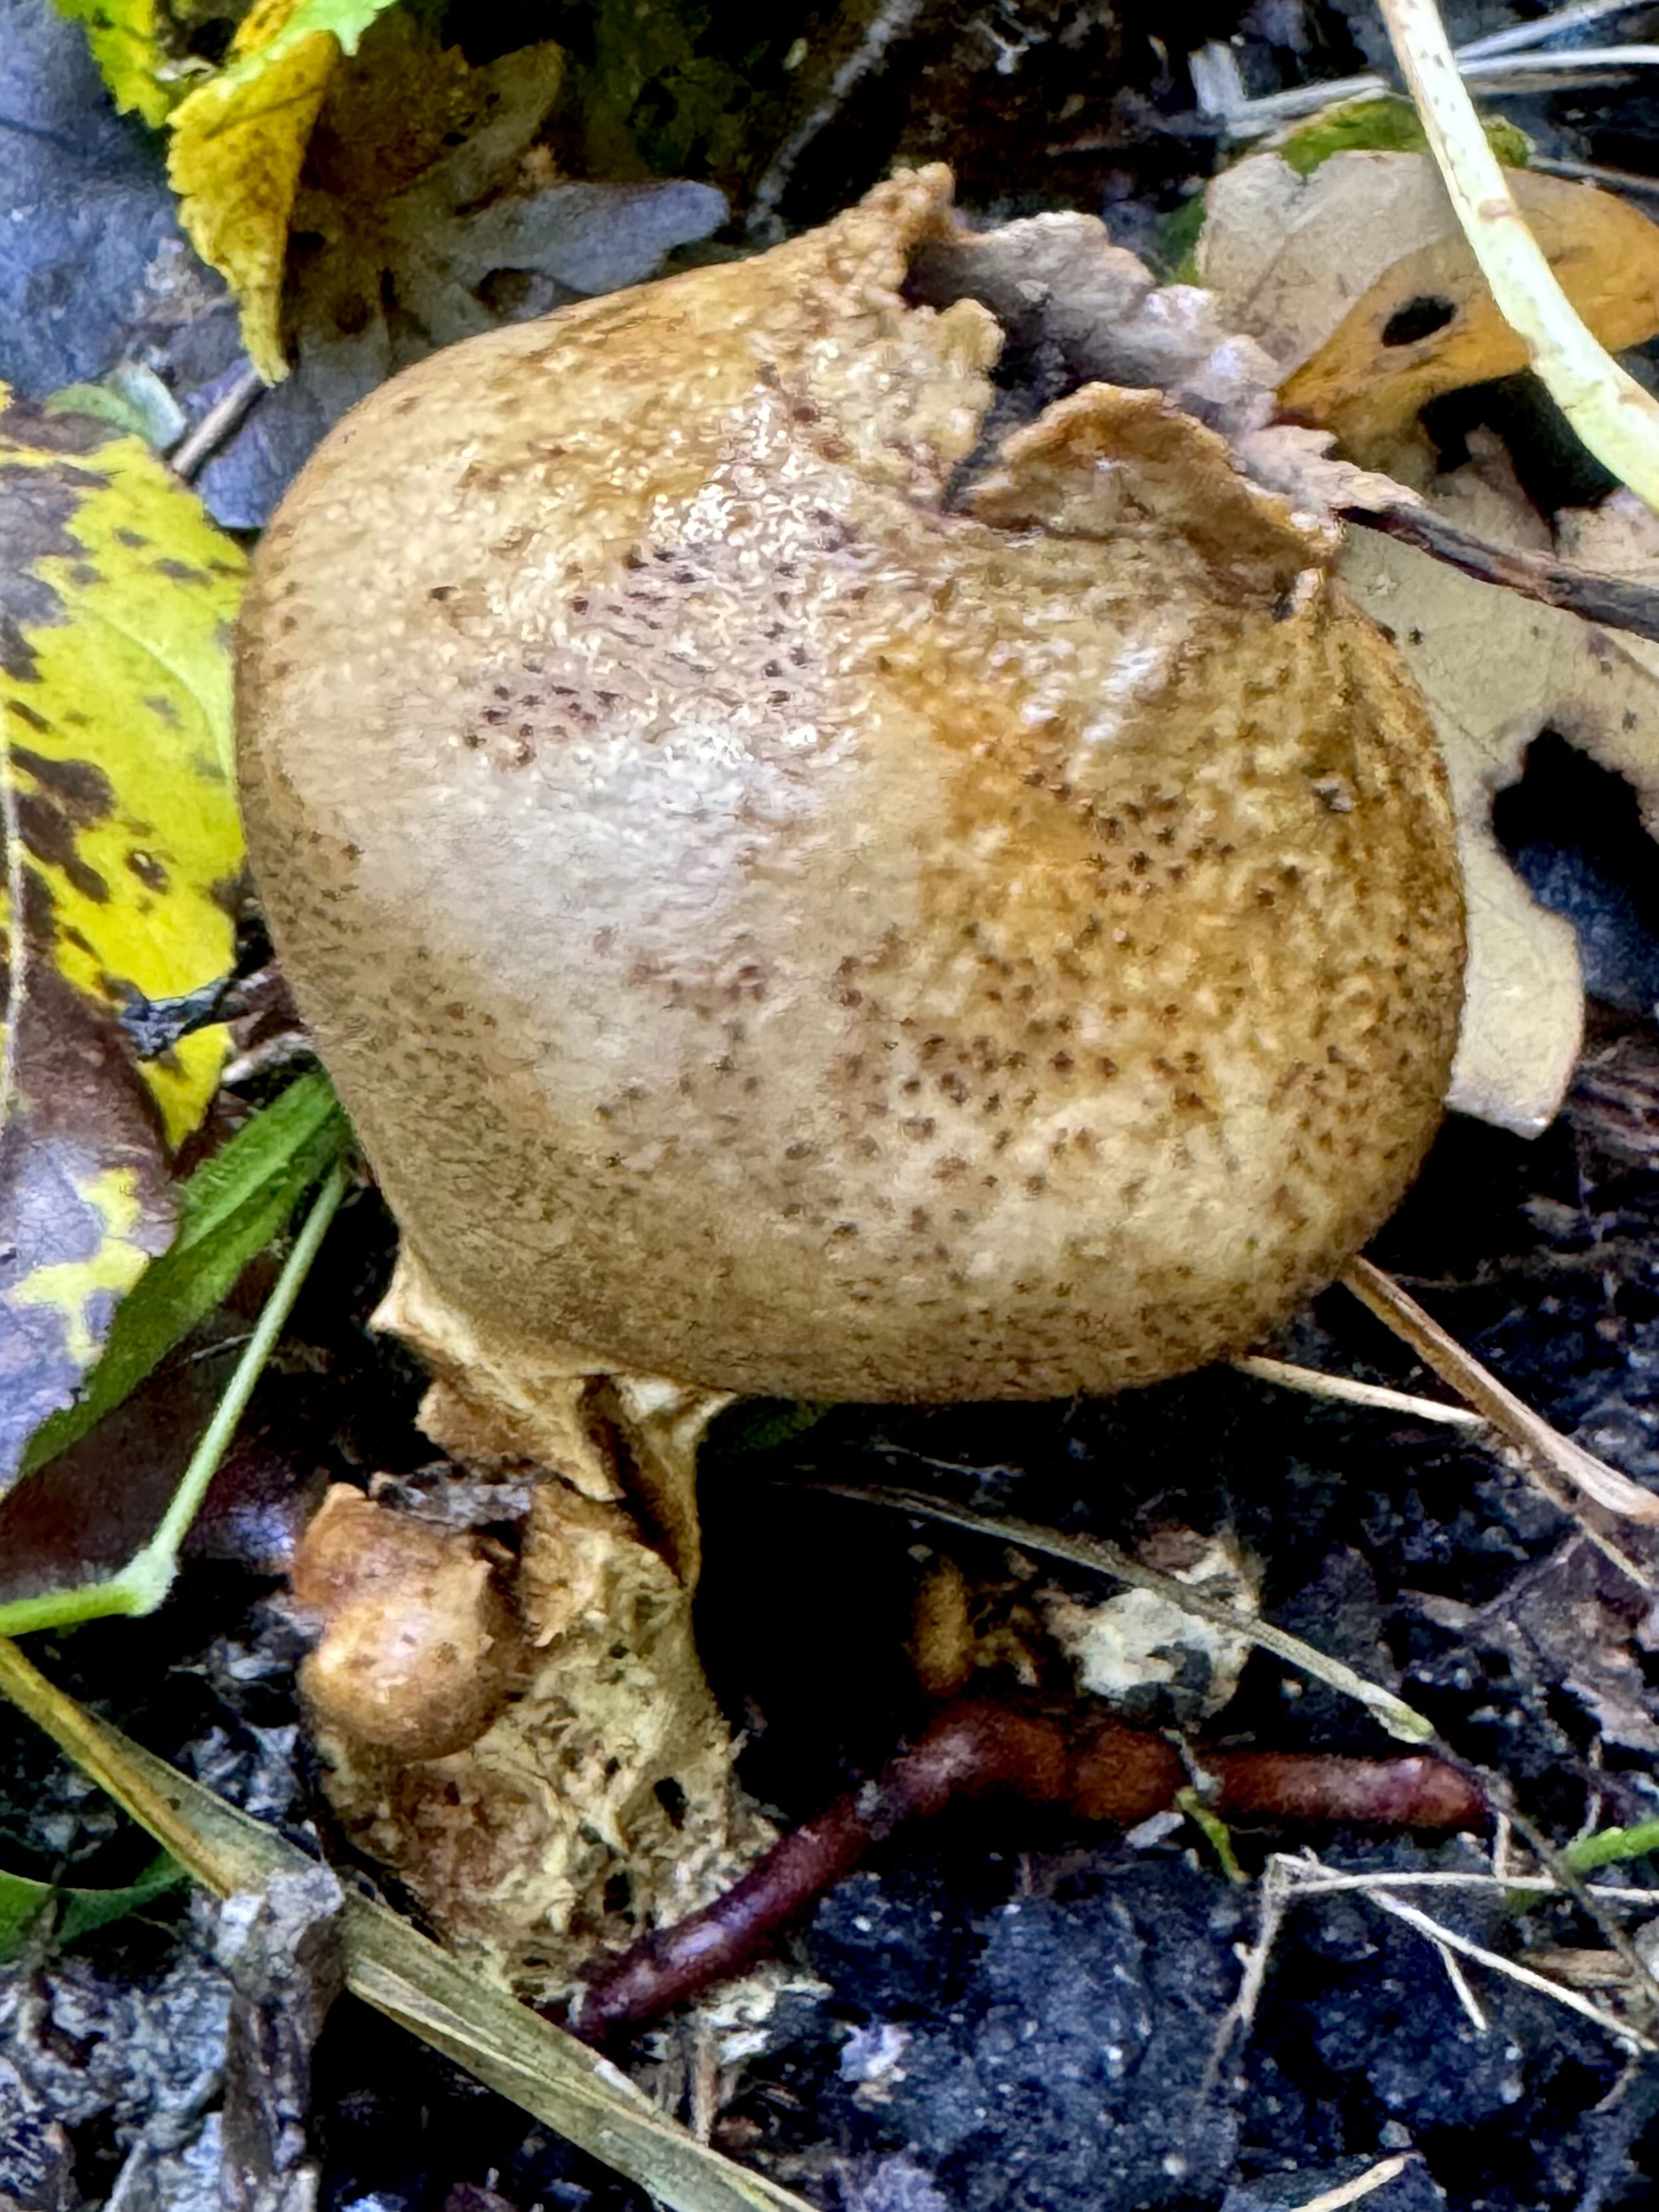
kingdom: Fungi
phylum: Basidiomycota
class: Agaricomycetes
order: Boletales
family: Sclerodermataceae
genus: Scleroderma
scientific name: Scleroderma verrucosum
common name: stilket bruskbold
